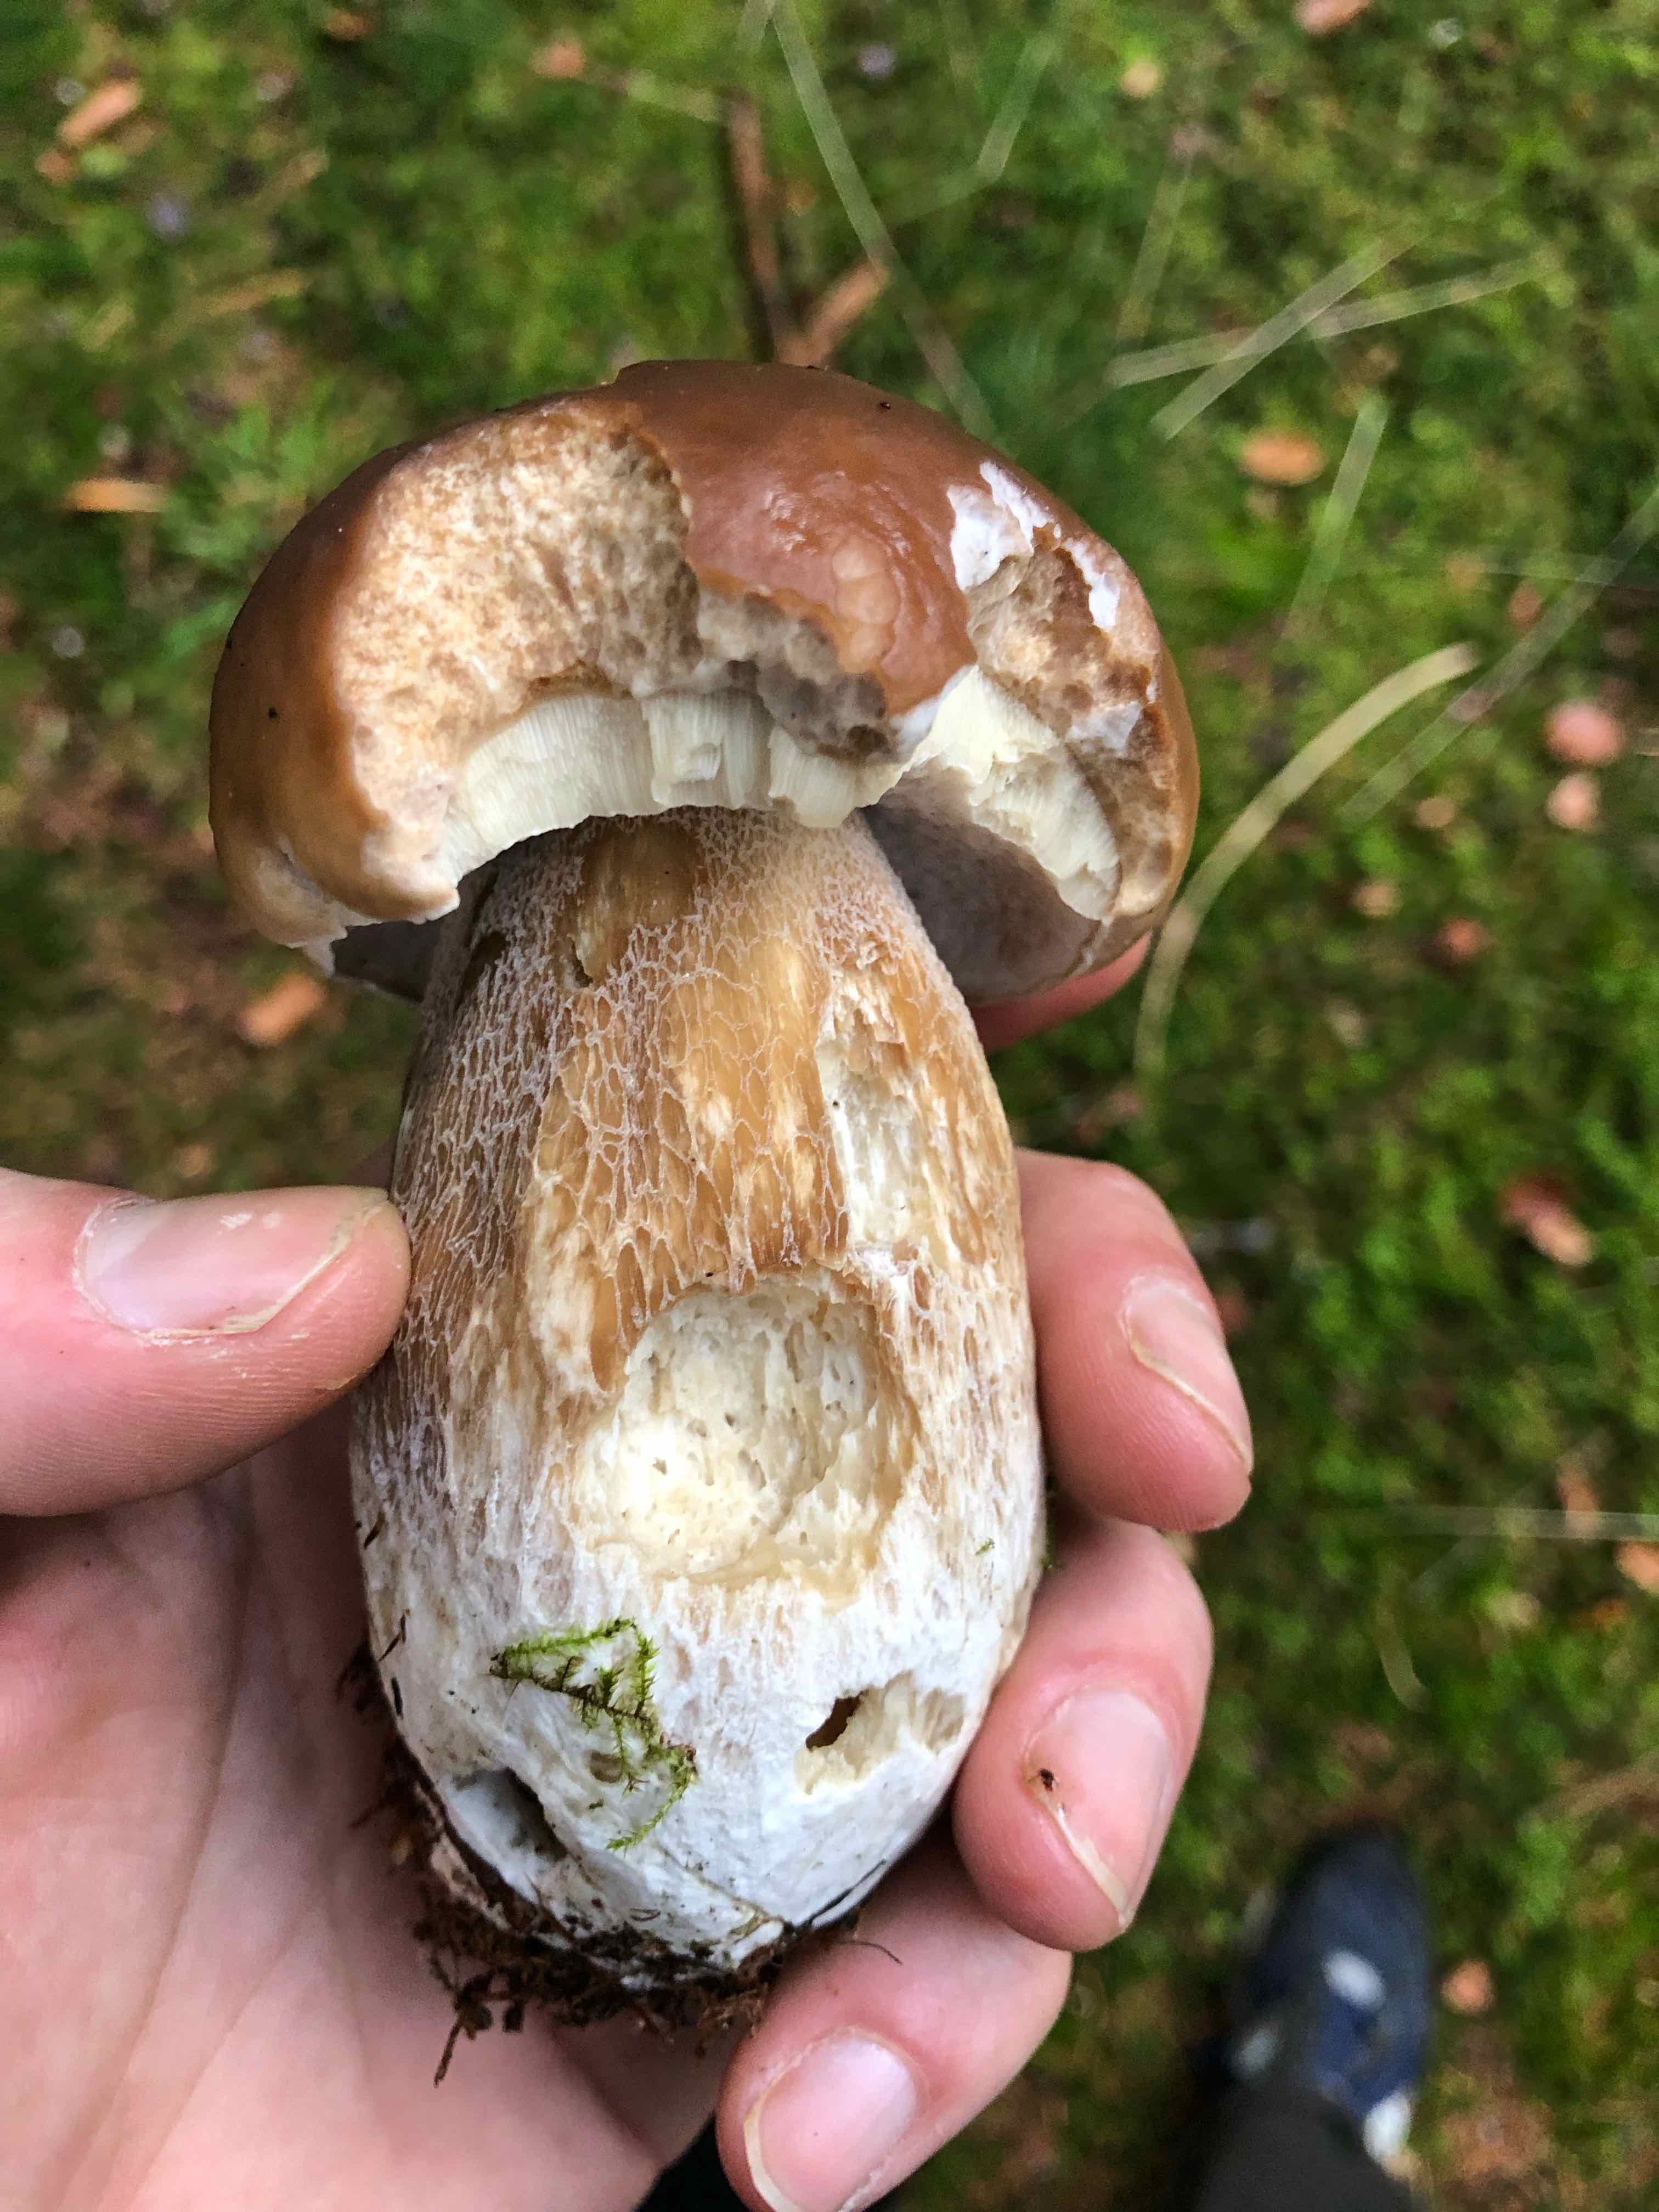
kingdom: Fungi
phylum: Basidiomycota
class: Agaricomycetes
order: Boletales
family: Boletaceae
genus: Boletus
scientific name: Boletus edulis
